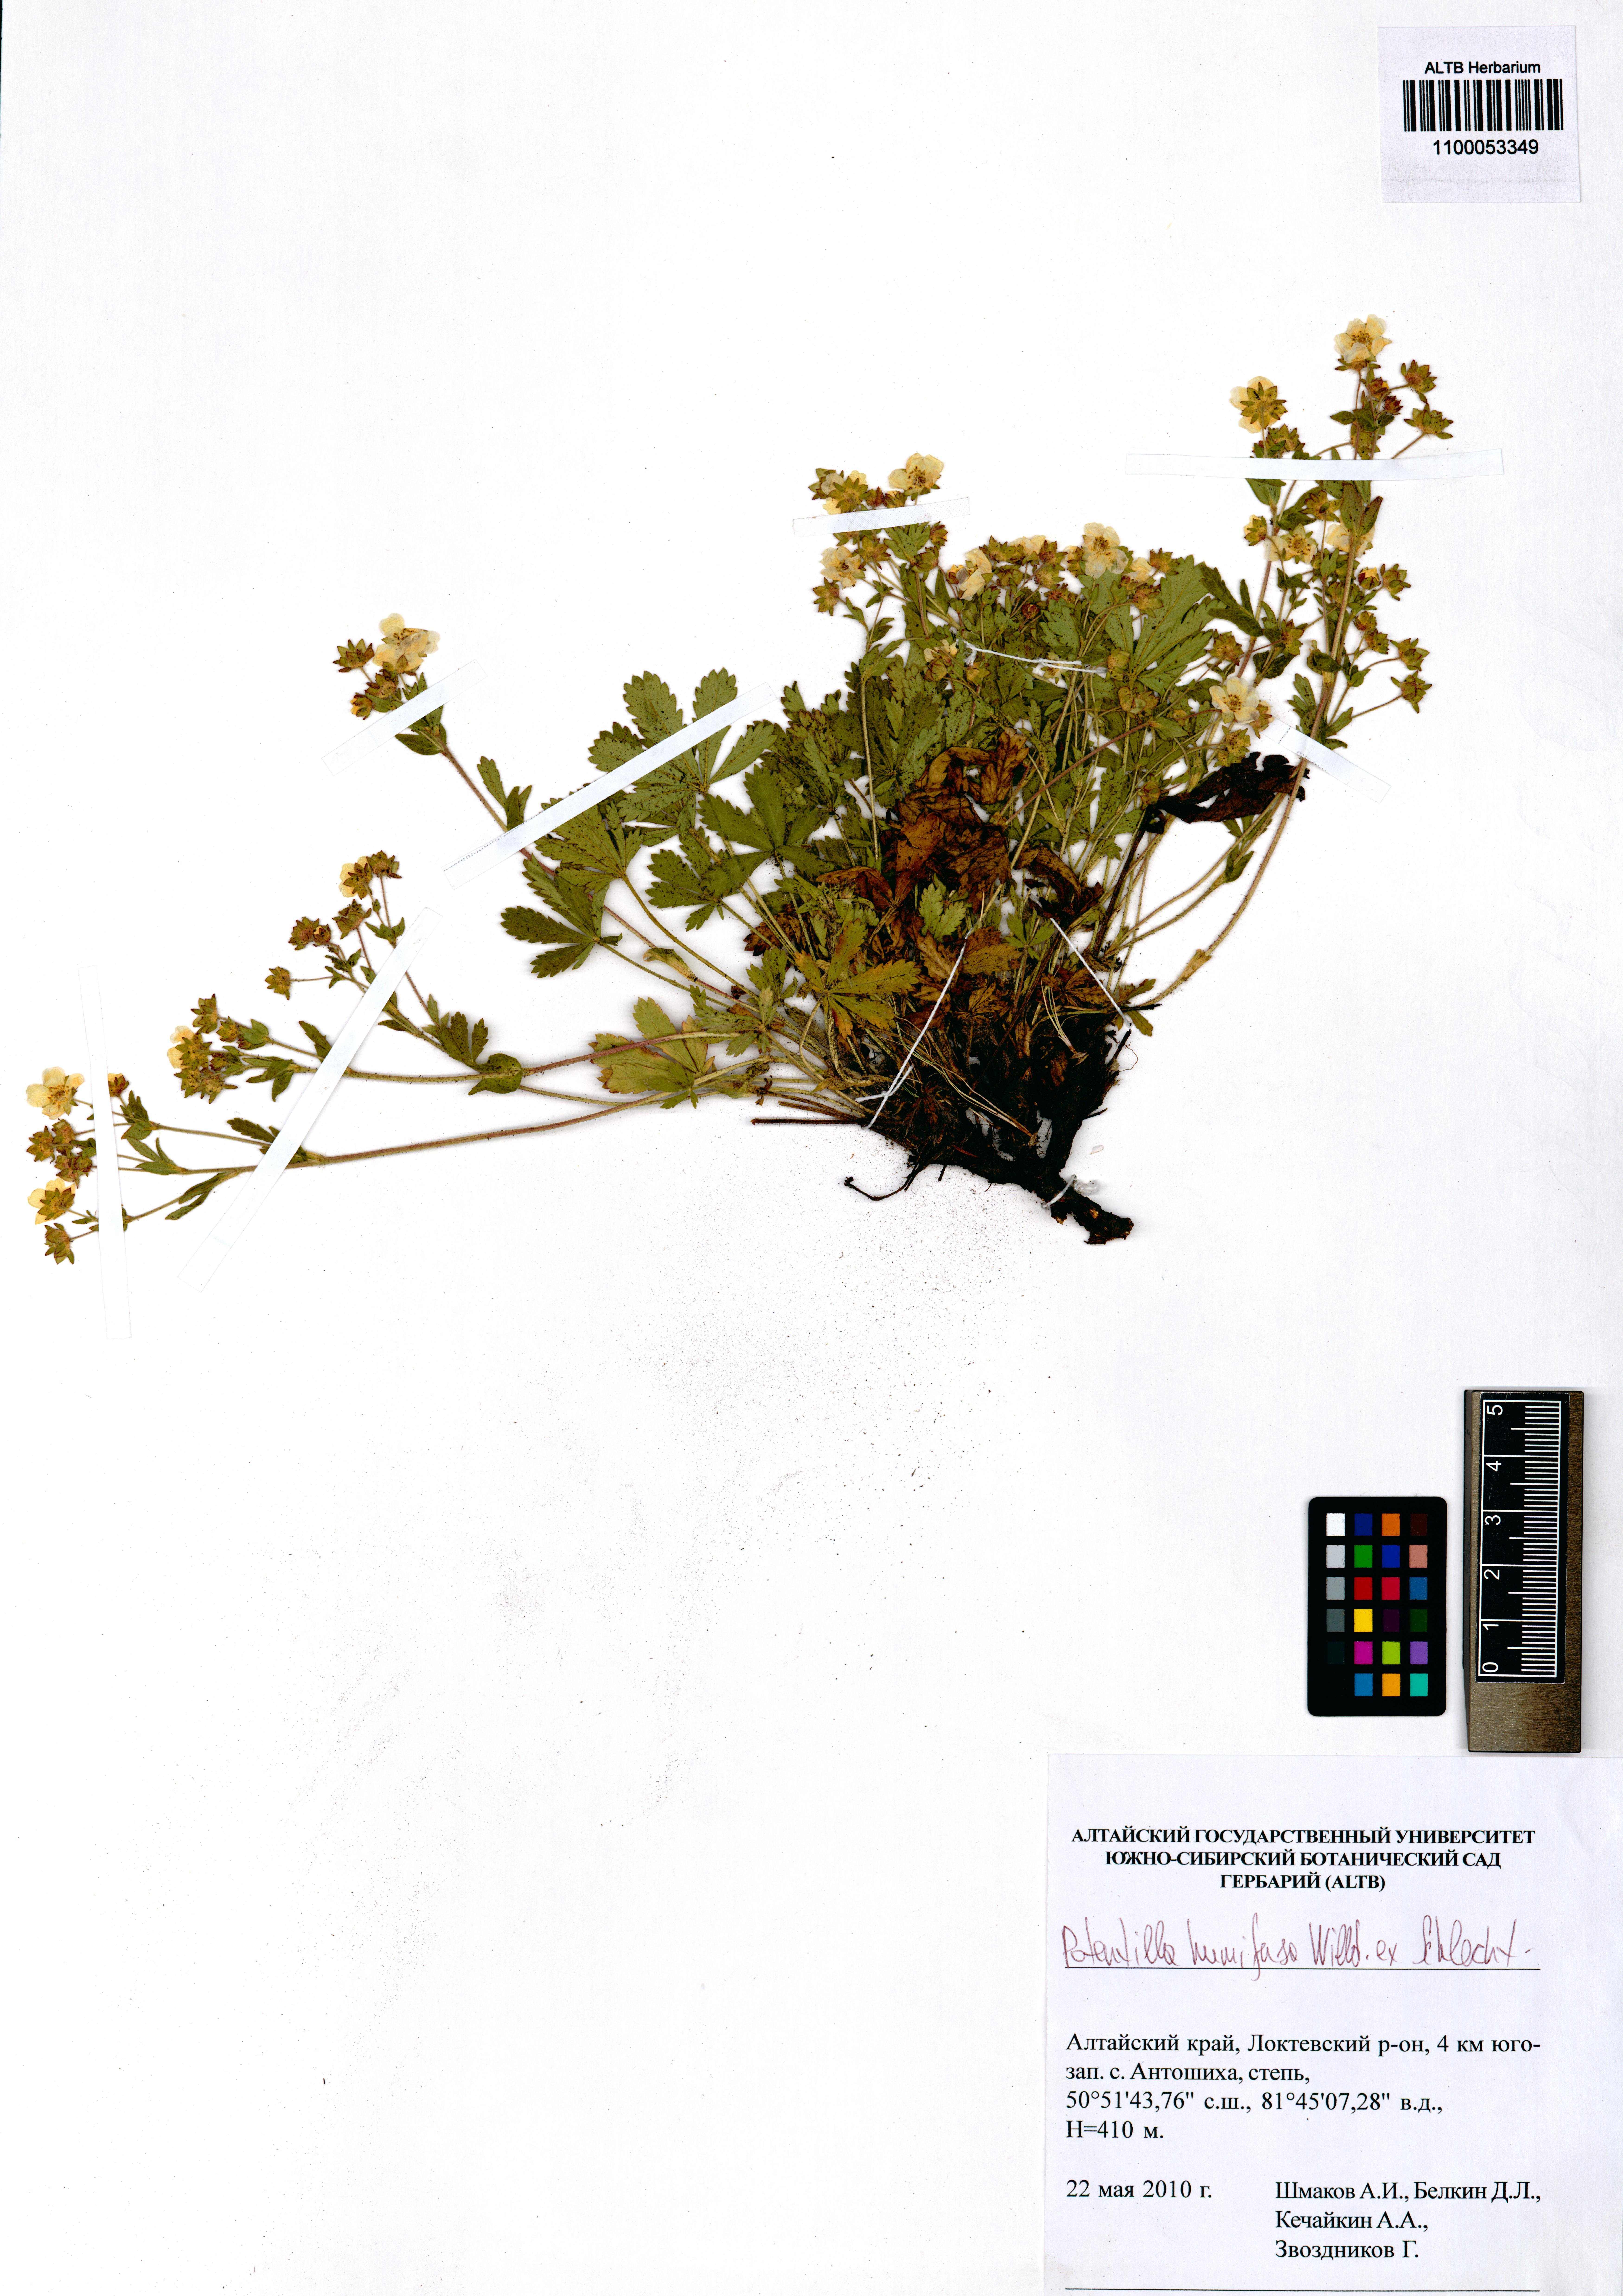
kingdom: Plantae
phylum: Tracheophyta
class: Magnoliopsida
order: Rosales
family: Rosaceae
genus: Potentilla
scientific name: Potentilla humifusa
